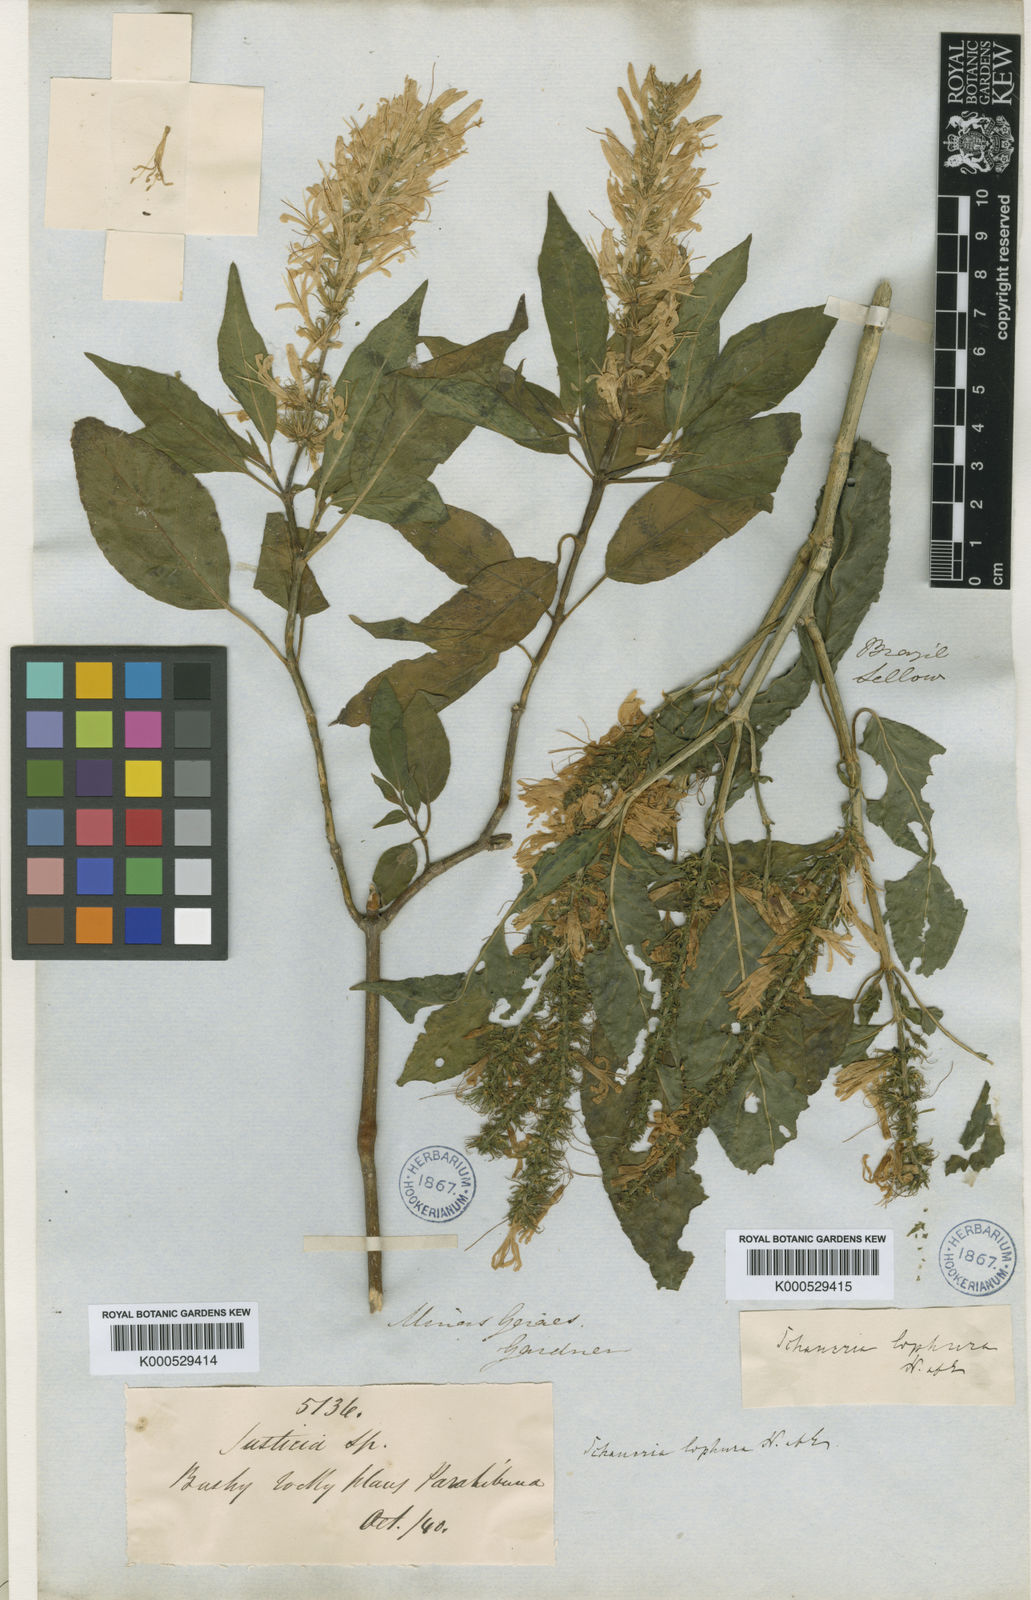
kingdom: Plantae
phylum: Tracheophyta
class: Magnoliopsida
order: Lamiales
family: Acanthaceae
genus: Schaueria
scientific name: Schaueria litoralis
